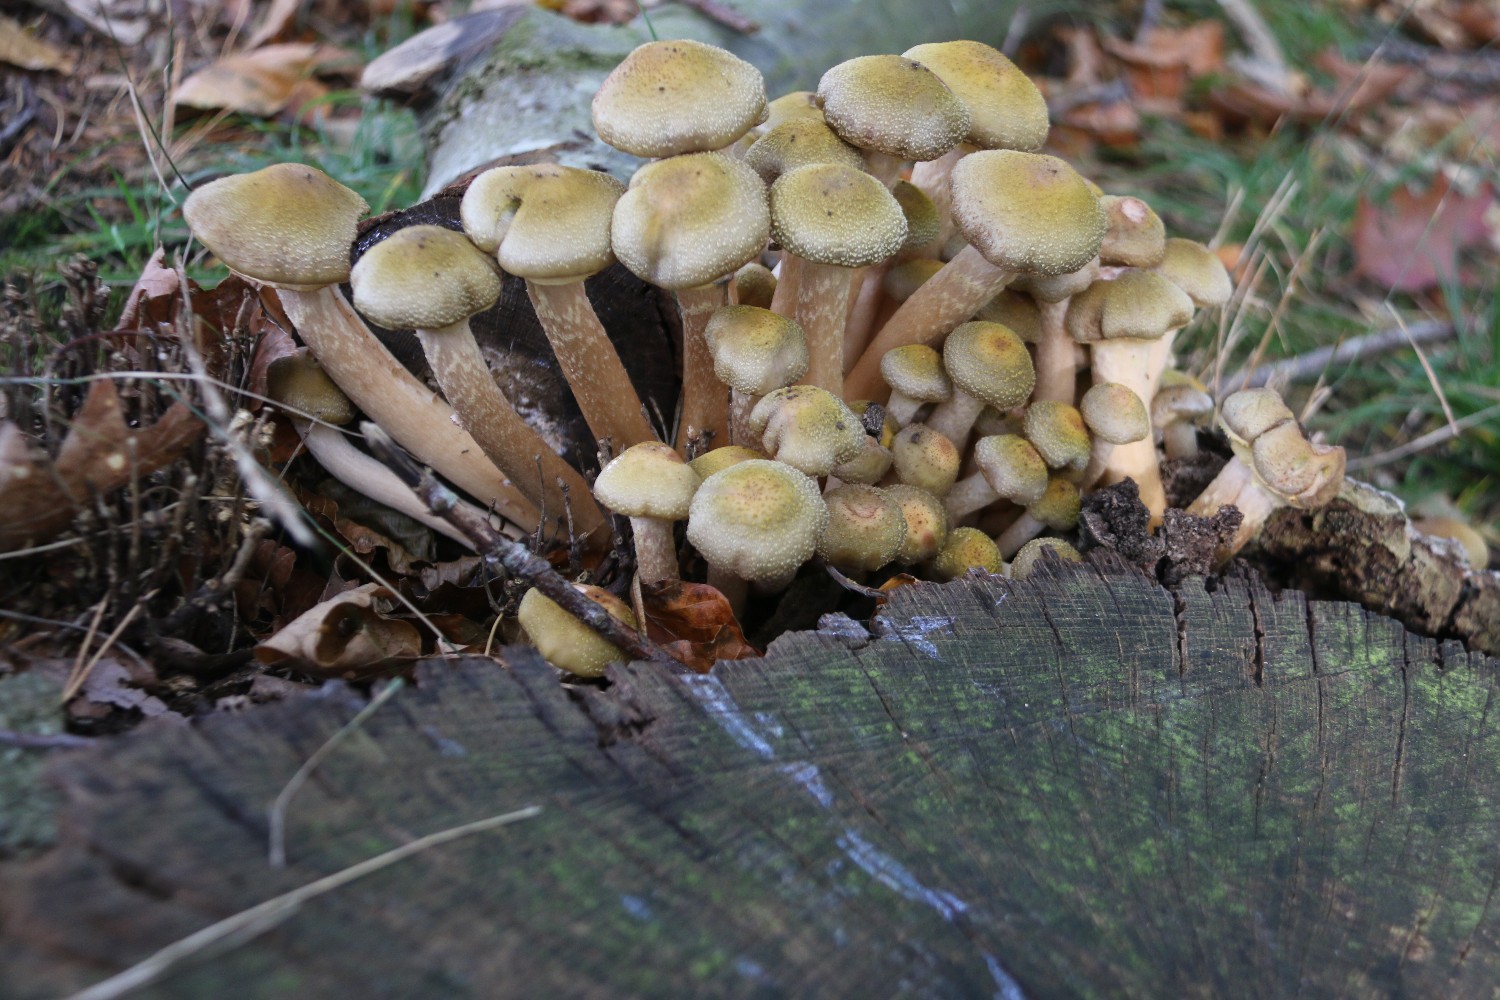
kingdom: Fungi
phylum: Basidiomycota
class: Agaricomycetes
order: Agaricales
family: Physalacriaceae
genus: Armillaria
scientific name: Armillaria mellea
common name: ægte honningsvamp
